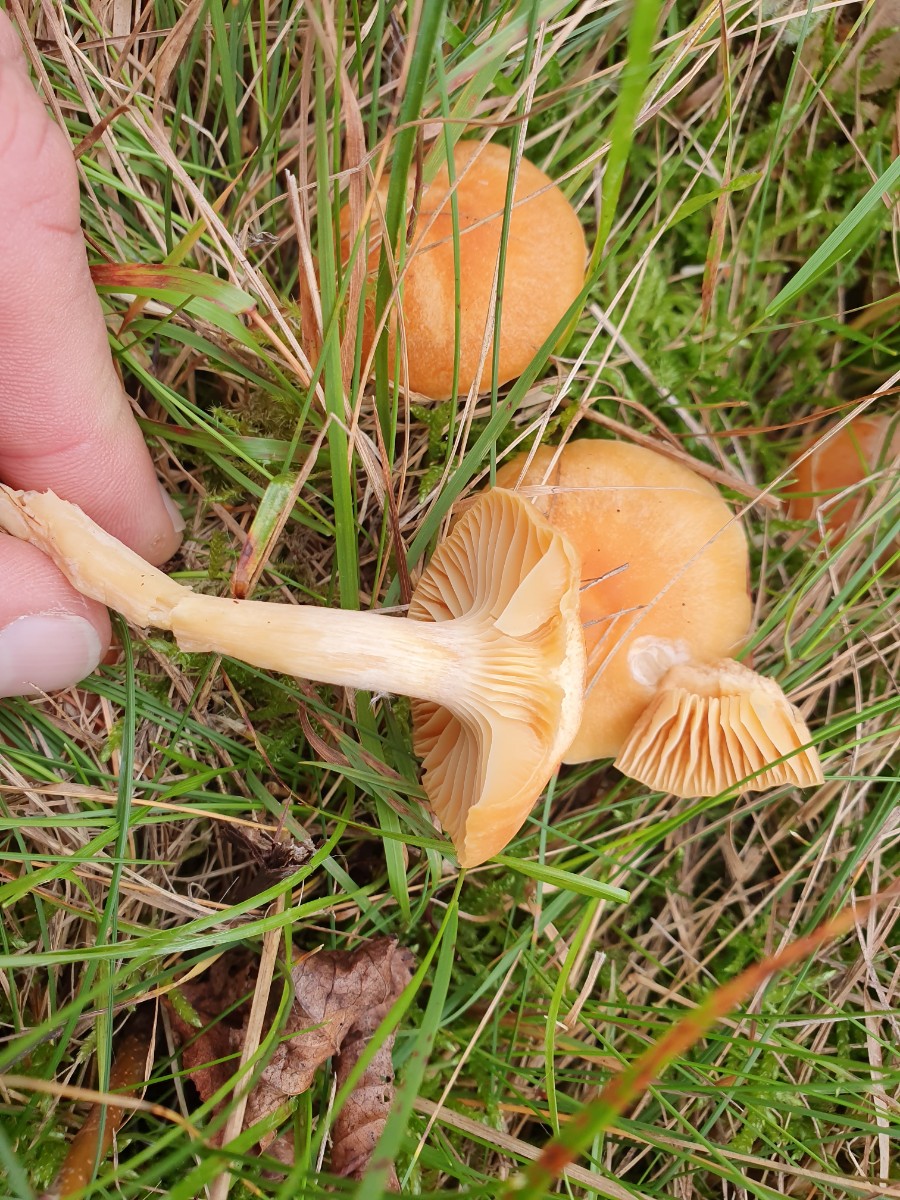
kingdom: Fungi
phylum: Basidiomycota
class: Agaricomycetes
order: Agaricales
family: Hygrophoraceae
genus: Cuphophyllus
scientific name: Cuphophyllus pratensis
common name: eng-vokshat
